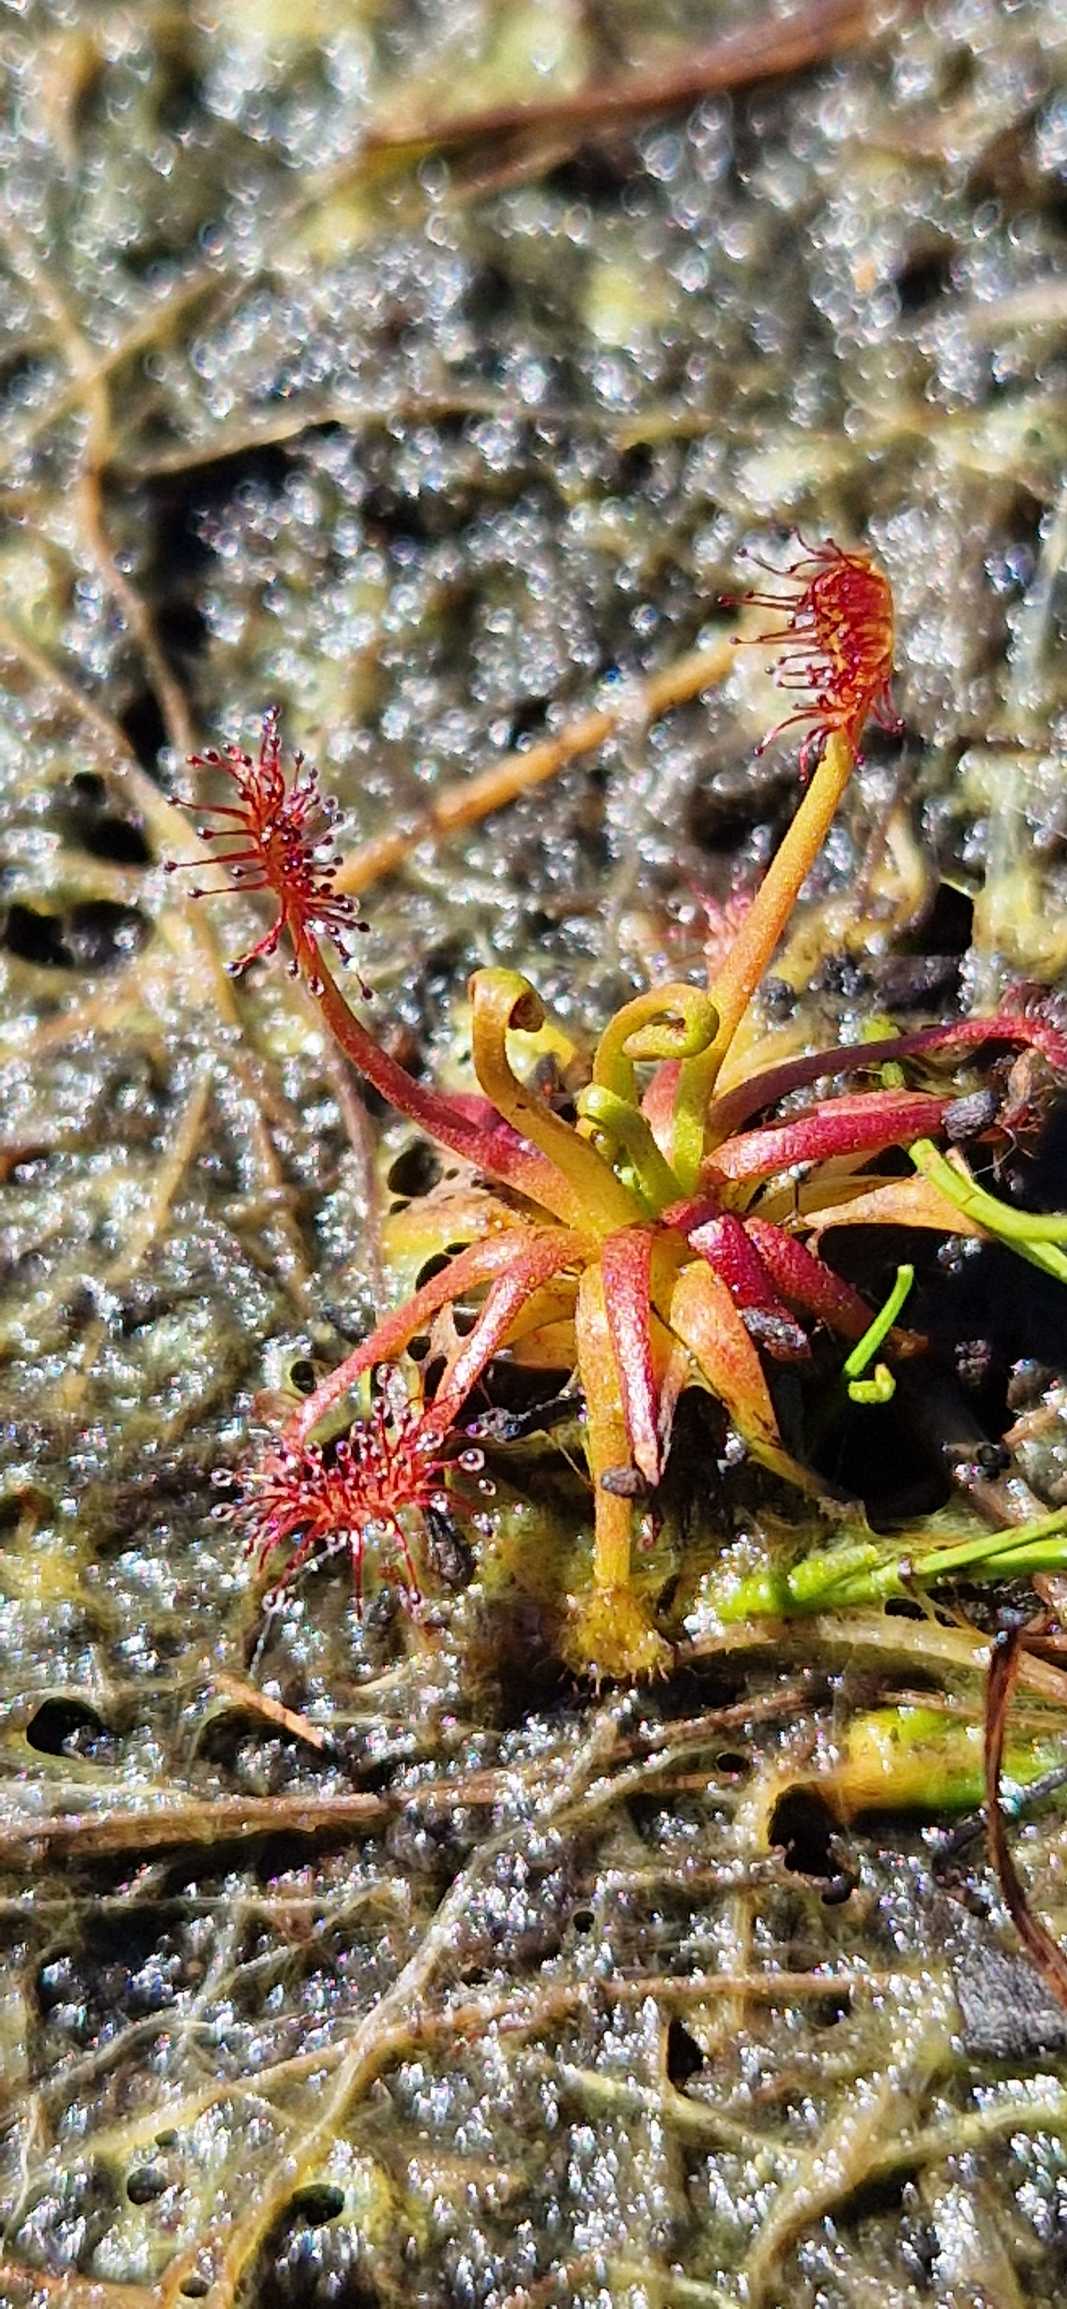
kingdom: Plantae
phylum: Tracheophyta
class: Magnoliopsida
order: Caryophyllales
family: Droseraceae
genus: Drosera
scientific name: Drosera intermedia
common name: Liden soldug
